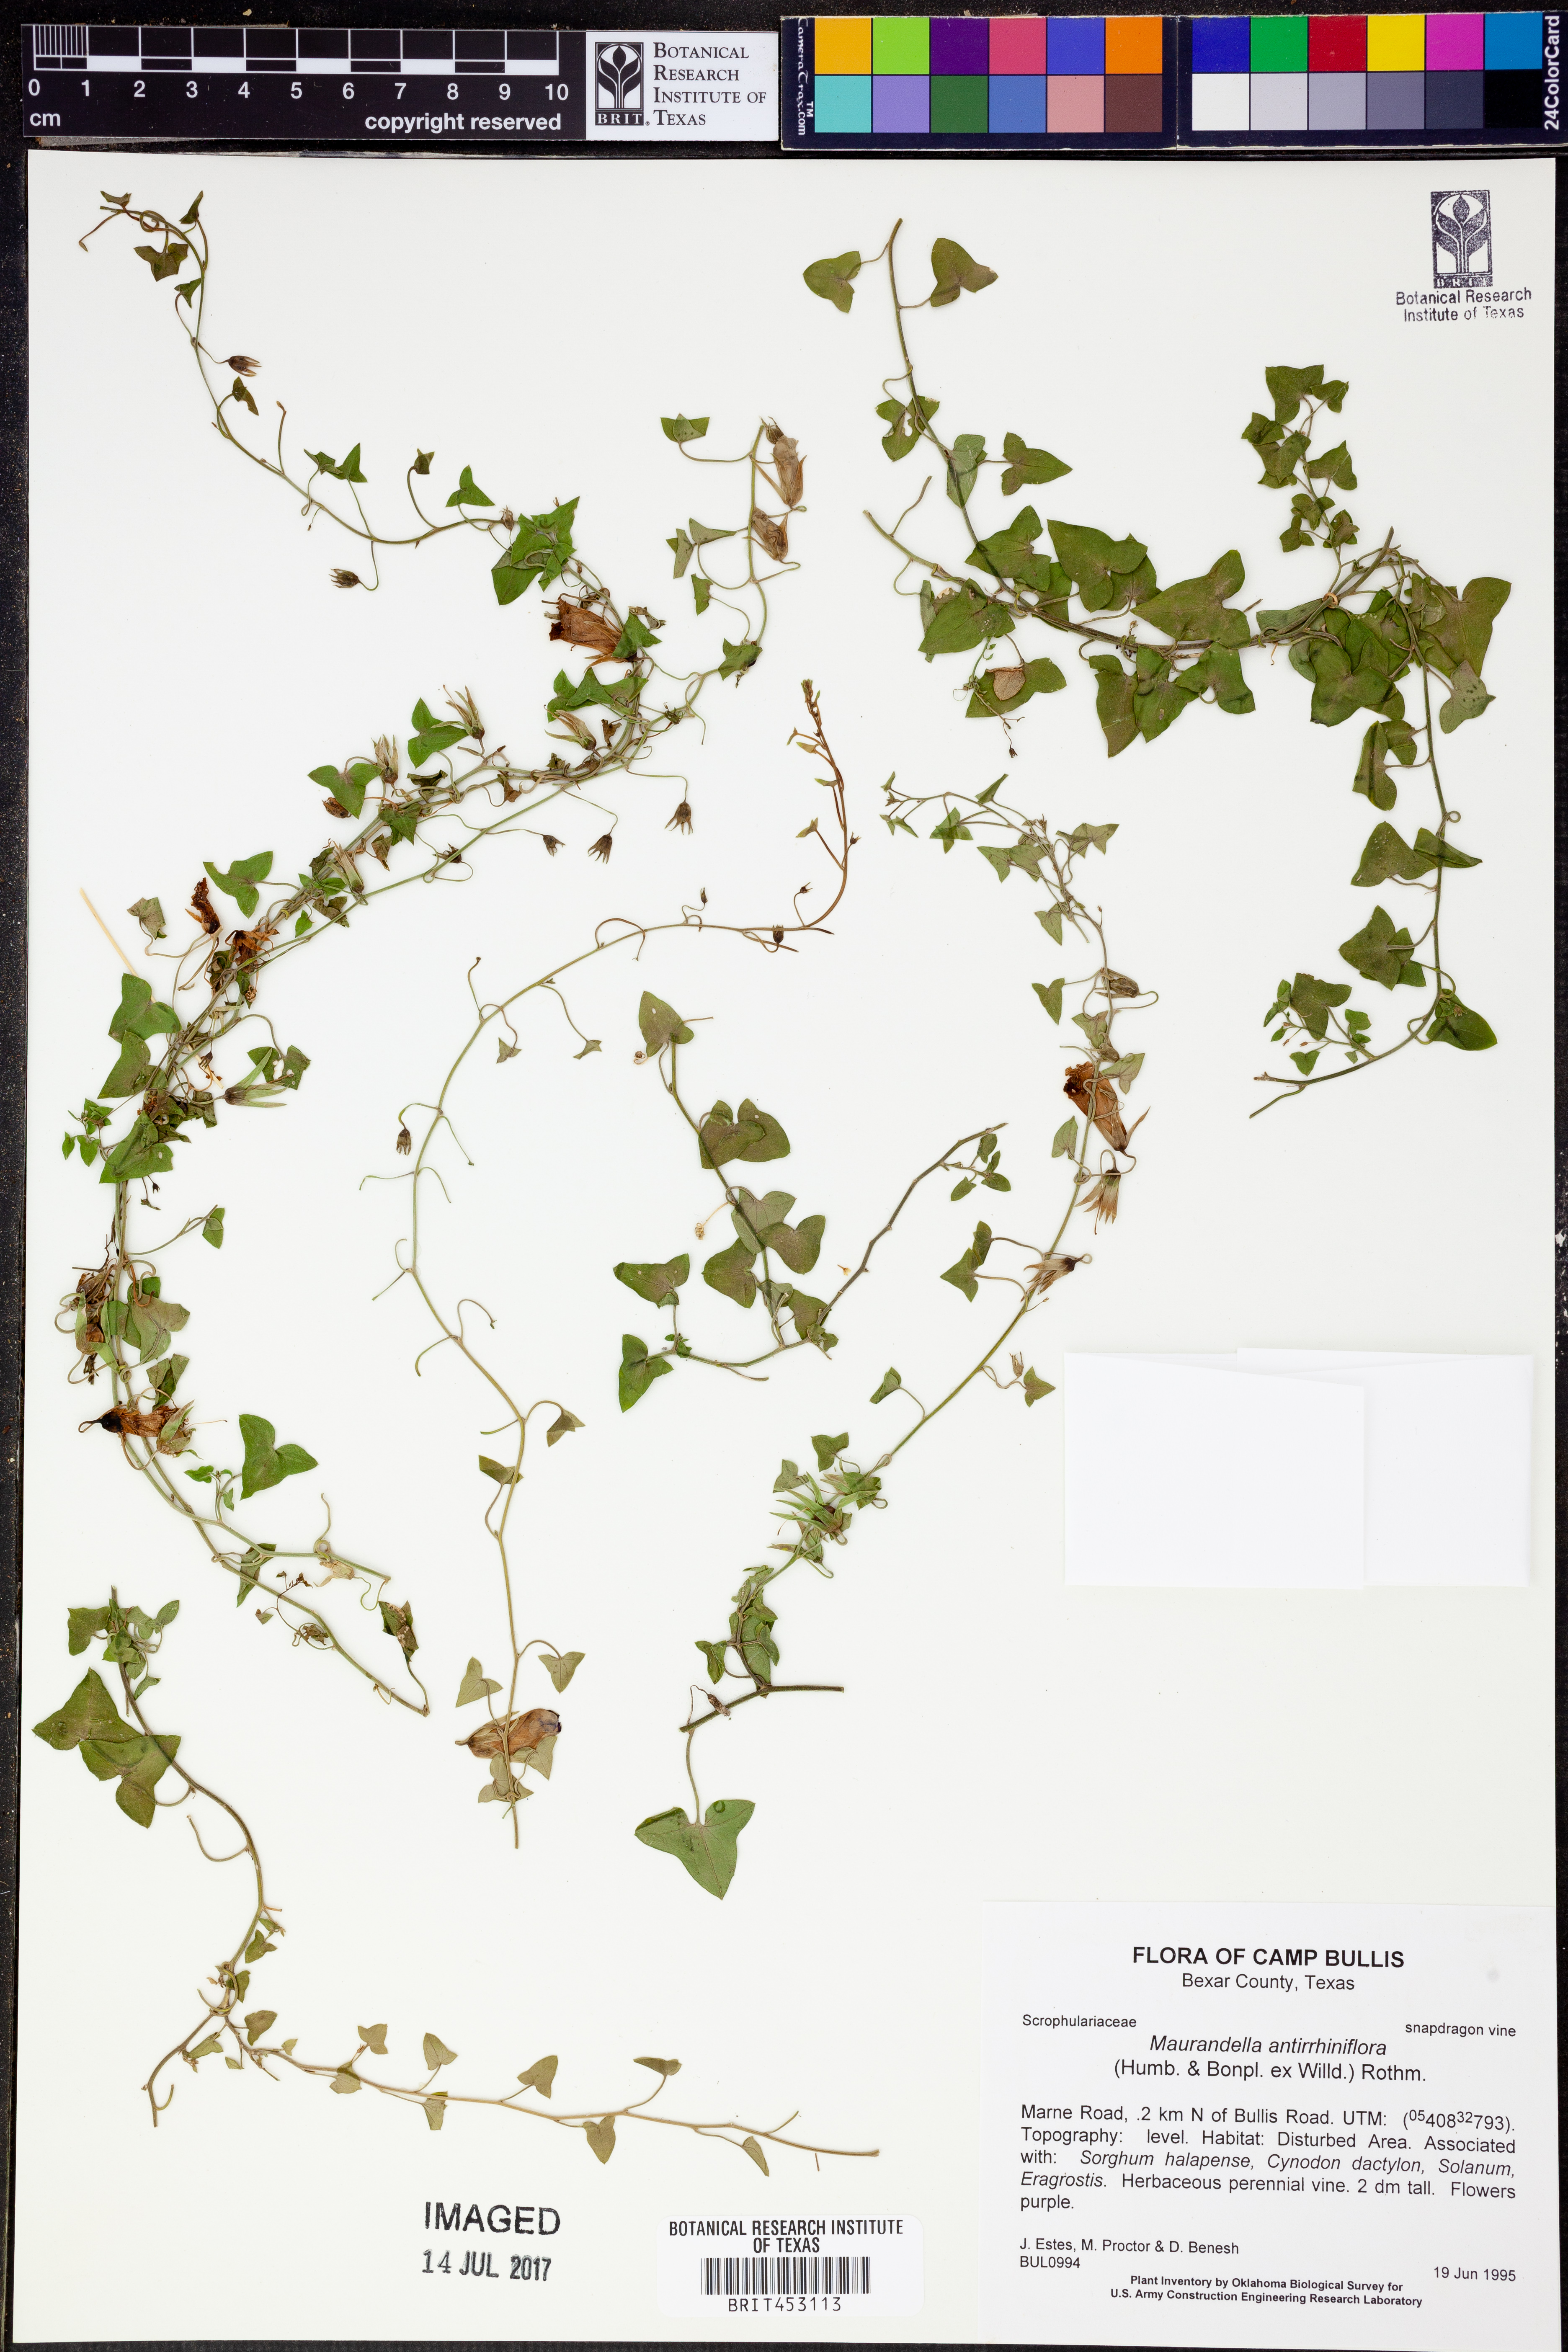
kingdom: Plantae
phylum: Tracheophyta
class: Magnoliopsida
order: Lamiales
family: Plantaginaceae
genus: Maurandella
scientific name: Maurandella antirrhiniflora
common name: Violet twining-snapdragon
